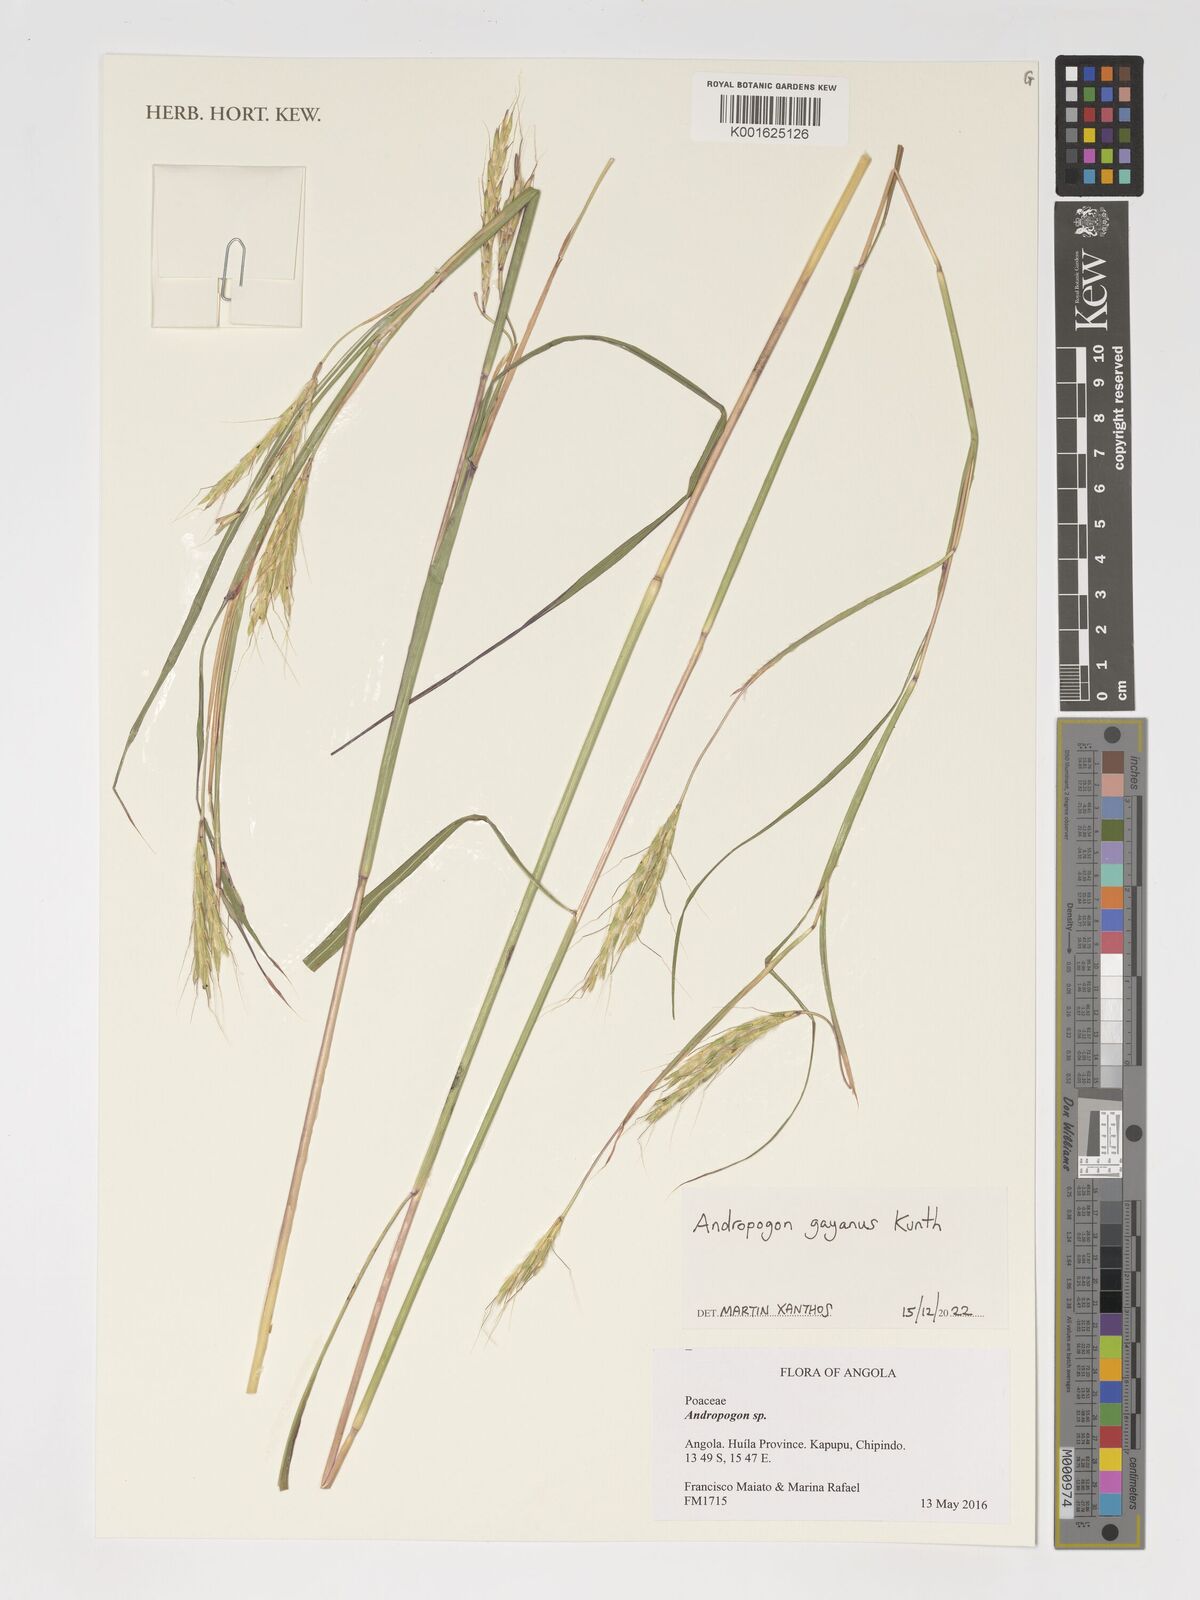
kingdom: Plantae
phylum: Tracheophyta
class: Liliopsida
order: Poales
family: Poaceae
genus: Andropogon
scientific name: Andropogon gayanus
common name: Tambuki grass
